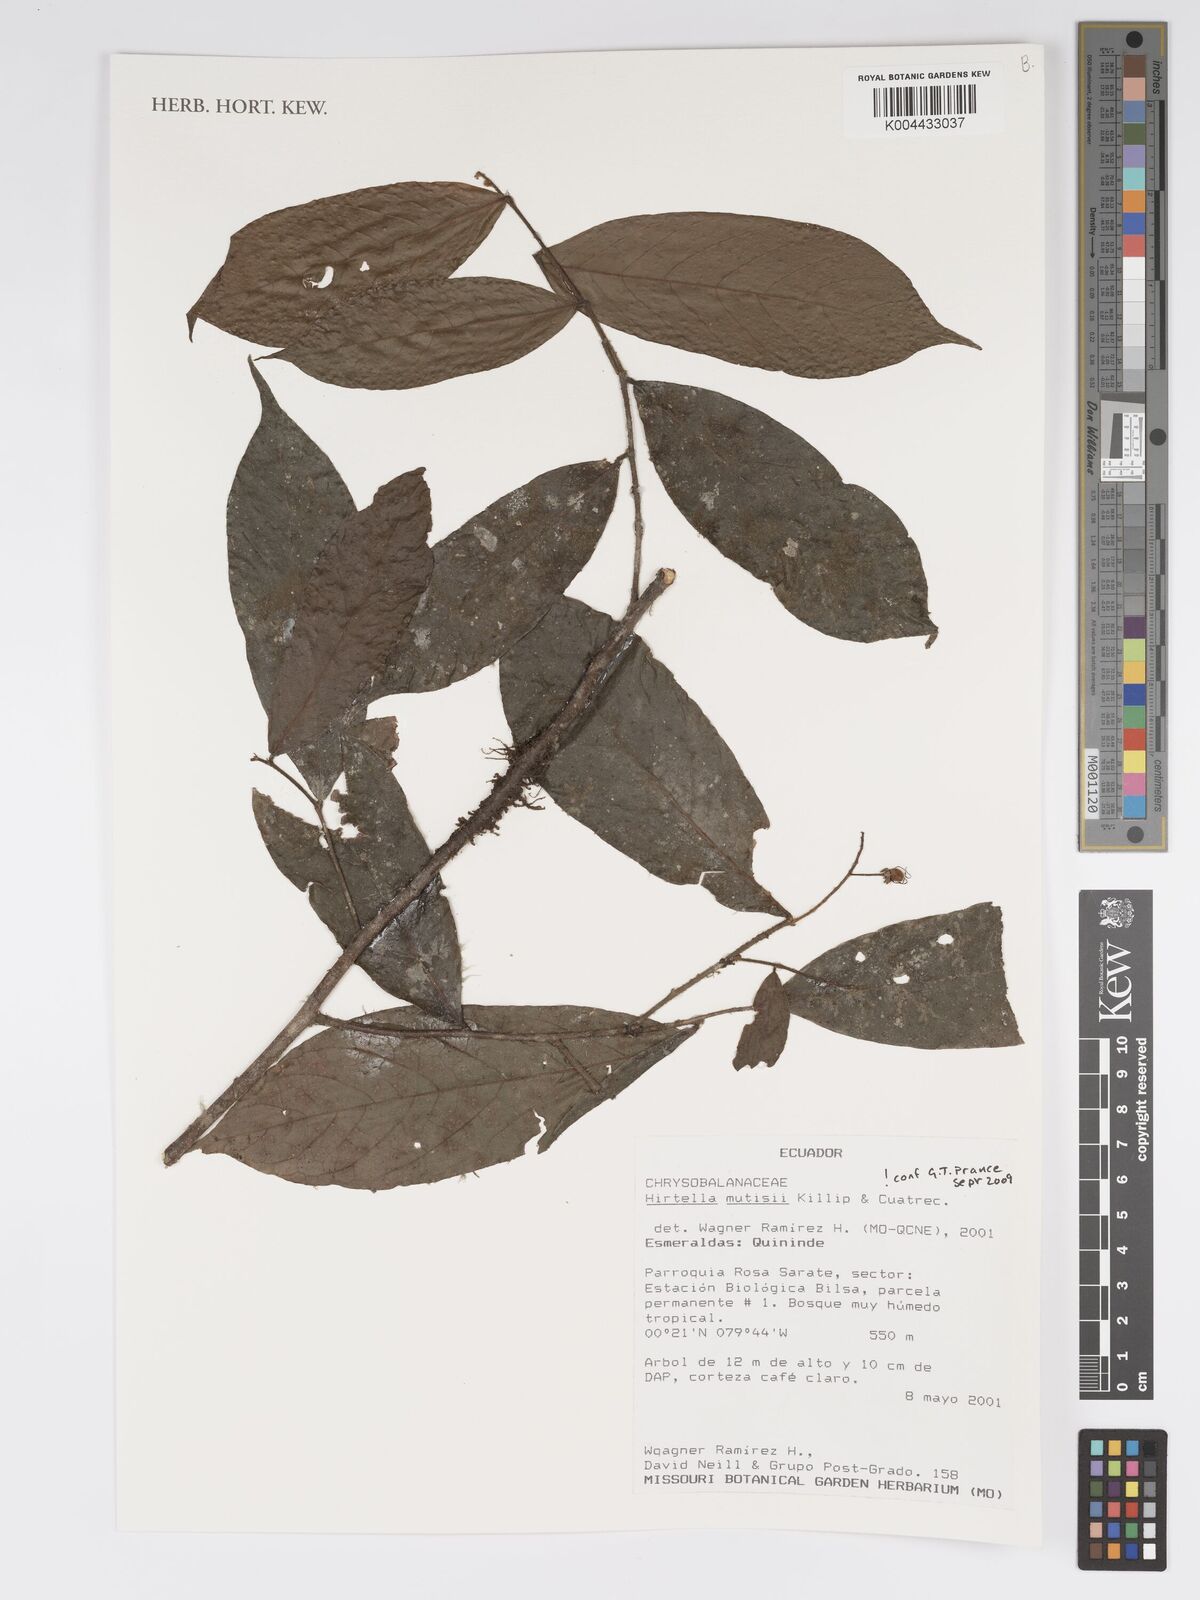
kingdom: Plantae
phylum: Tracheophyta
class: Magnoliopsida
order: Malpighiales
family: Chrysobalanaceae
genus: Hirtella
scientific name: Hirtella mutisii
